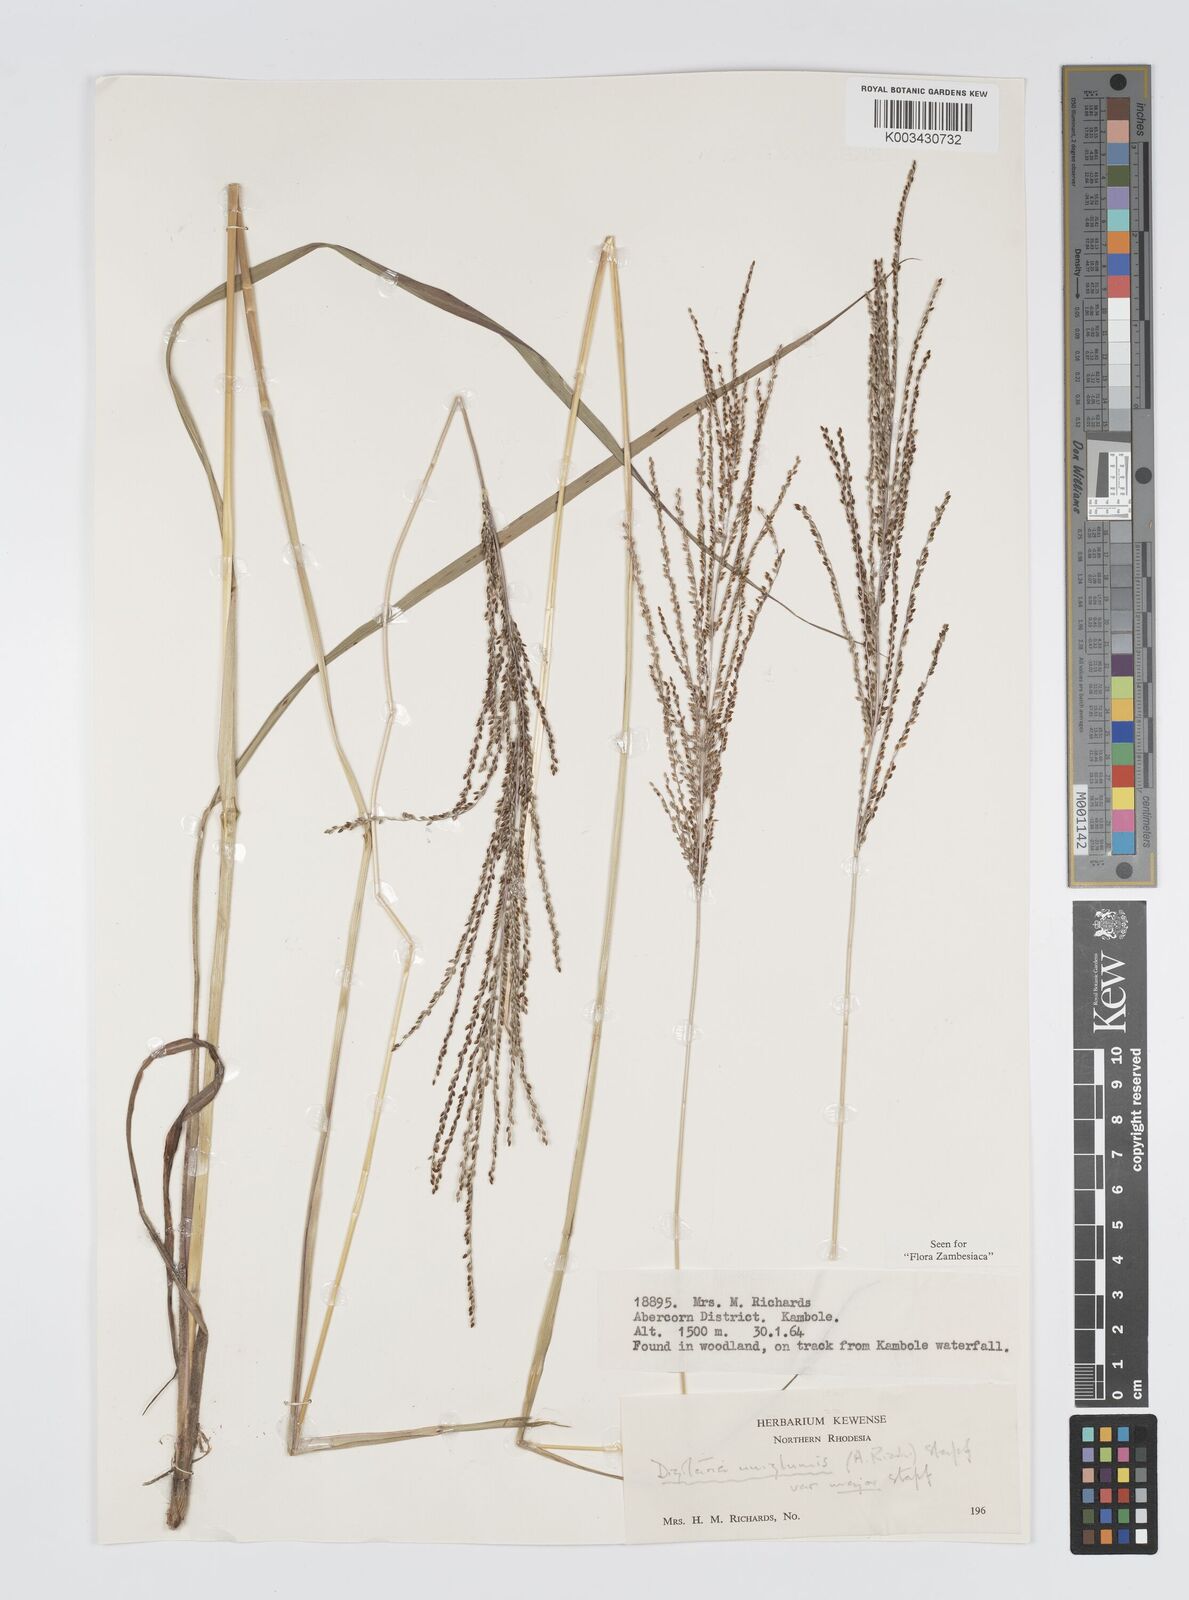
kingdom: Plantae
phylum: Tracheophyta
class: Liliopsida
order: Poales
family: Poaceae
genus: Digitaria
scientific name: Digitaria diagonalis
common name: Brown-seed finger grass
